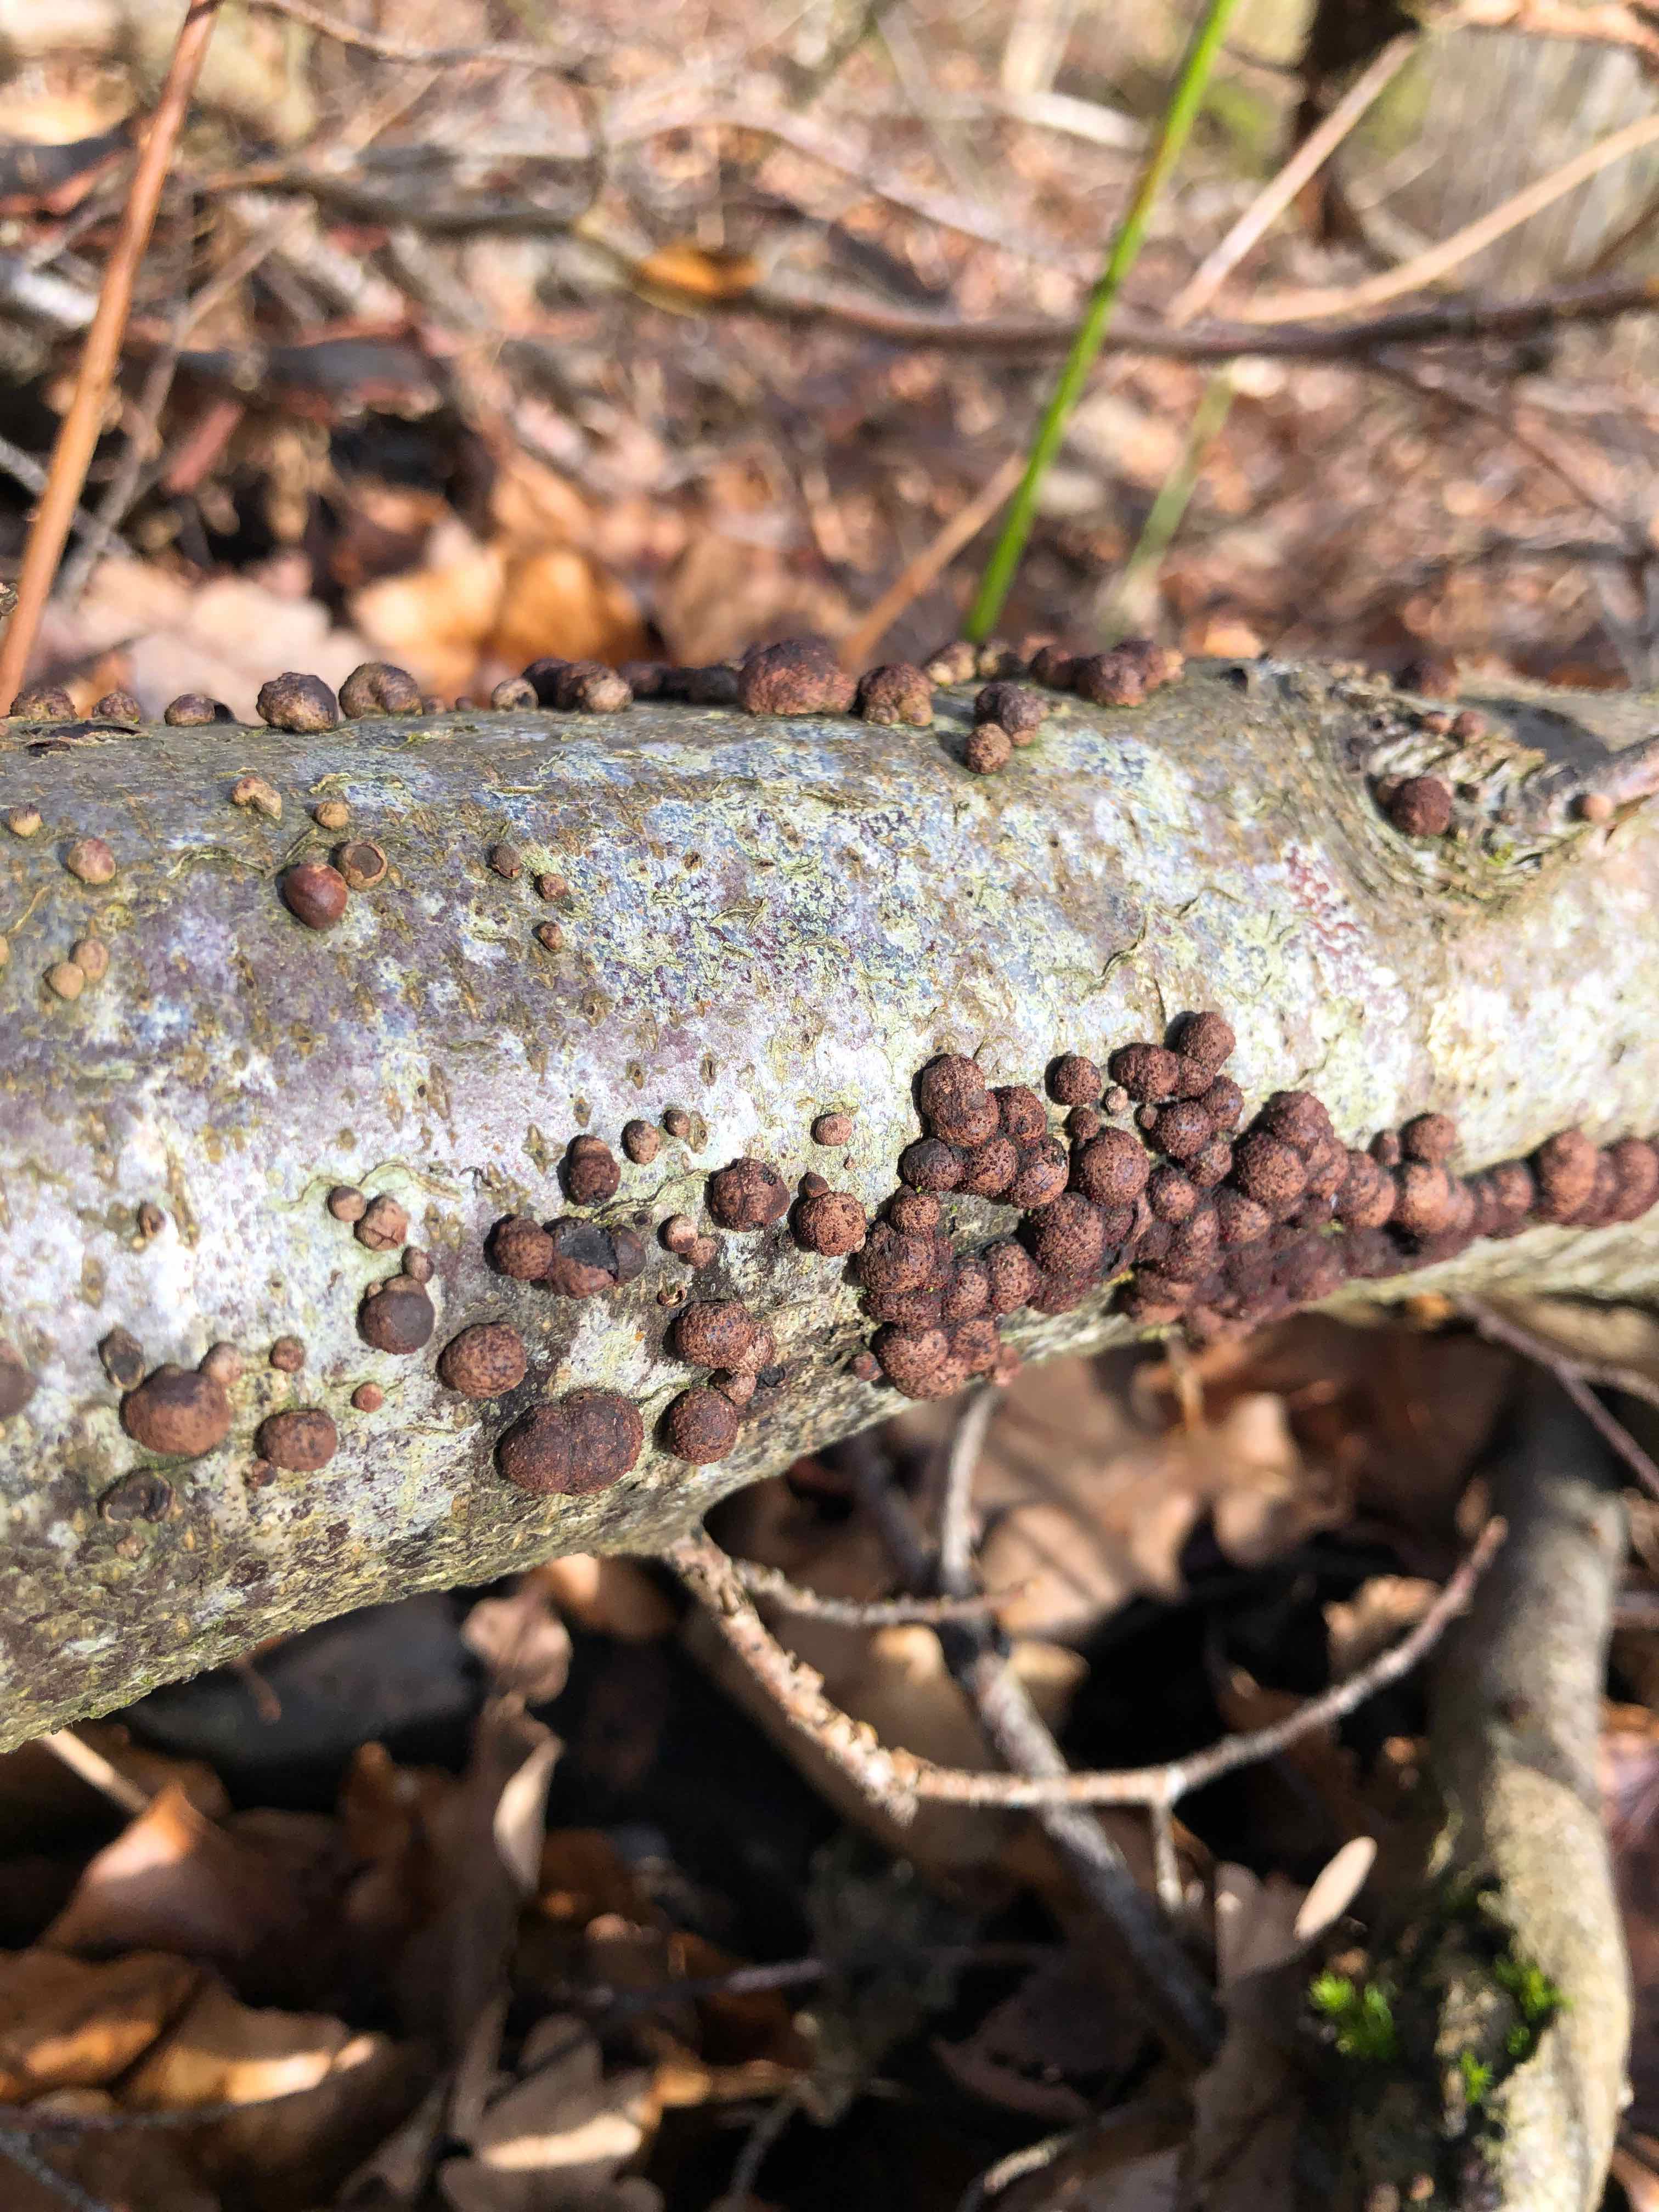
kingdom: Fungi
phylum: Ascomycota
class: Sordariomycetes
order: Xylariales
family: Hypoxylaceae
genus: Hypoxylon
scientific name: Hypoxylon fragiforme
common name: kuljordbær
